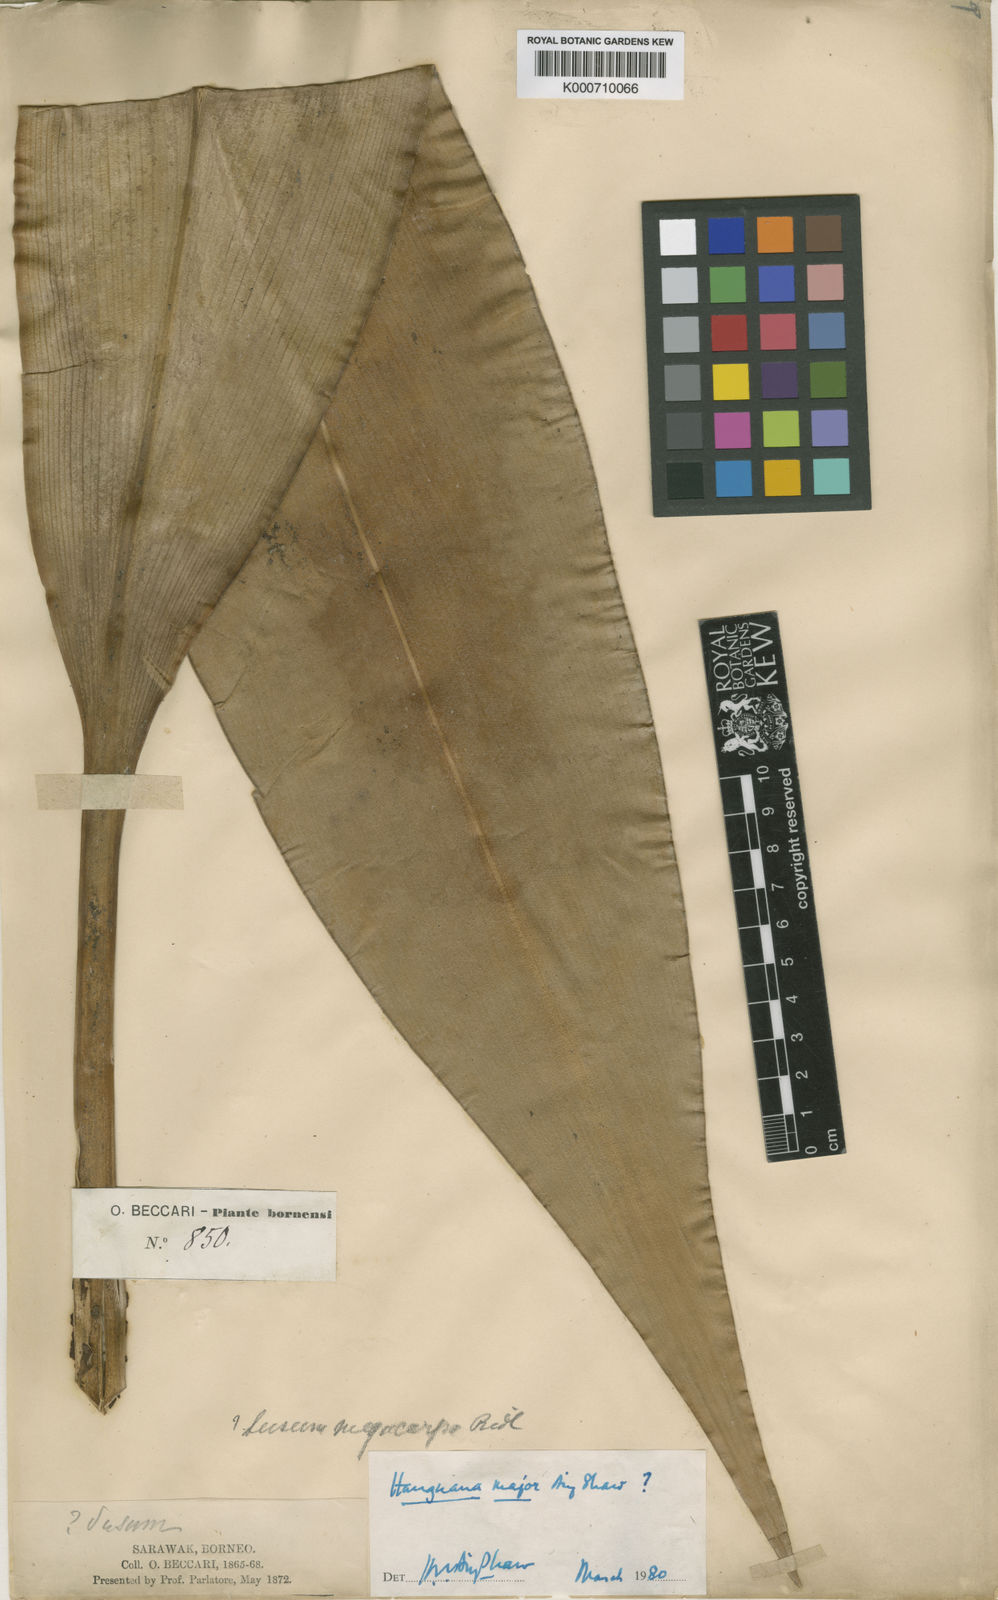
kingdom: Plantae
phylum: Tracheophyta
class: Liliopsida
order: Commelinales
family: Hanguanaceae
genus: Hanguana
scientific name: Hanguana major
